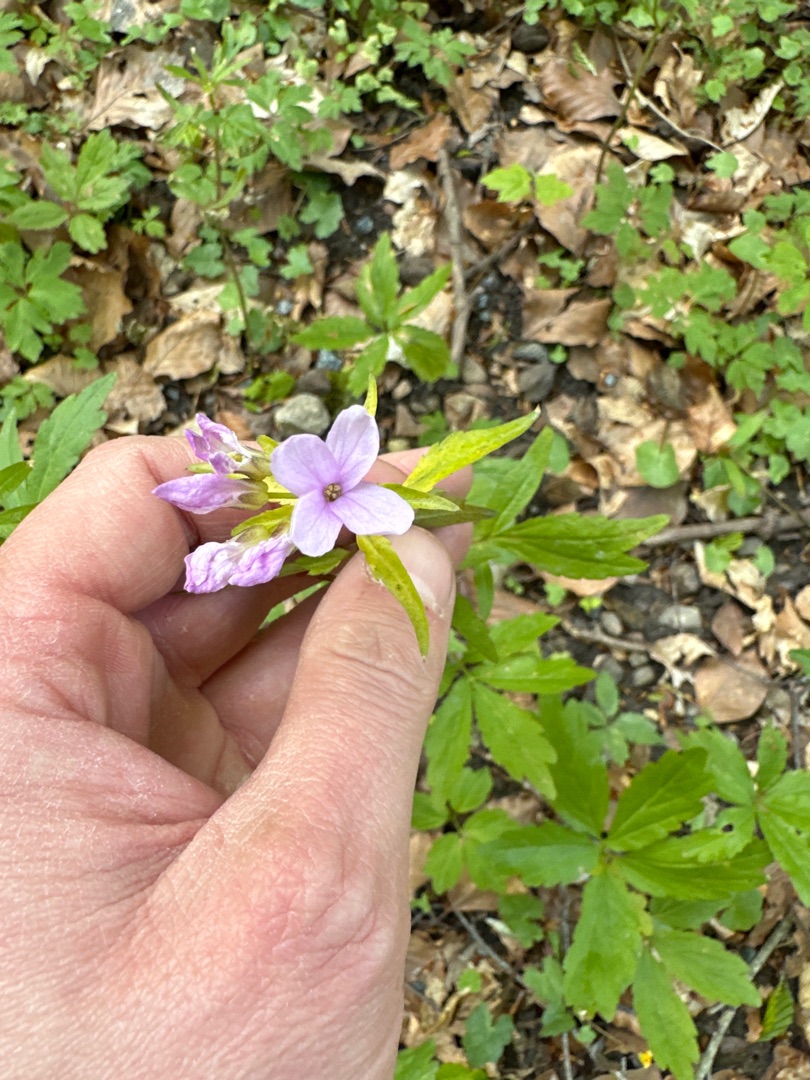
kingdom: Plantae
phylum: Tracheophyta
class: Magnoliopsida
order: Brassicales
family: Brassicaceae
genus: Cardamine
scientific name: Cardamine bulbifera
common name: Tandrod
